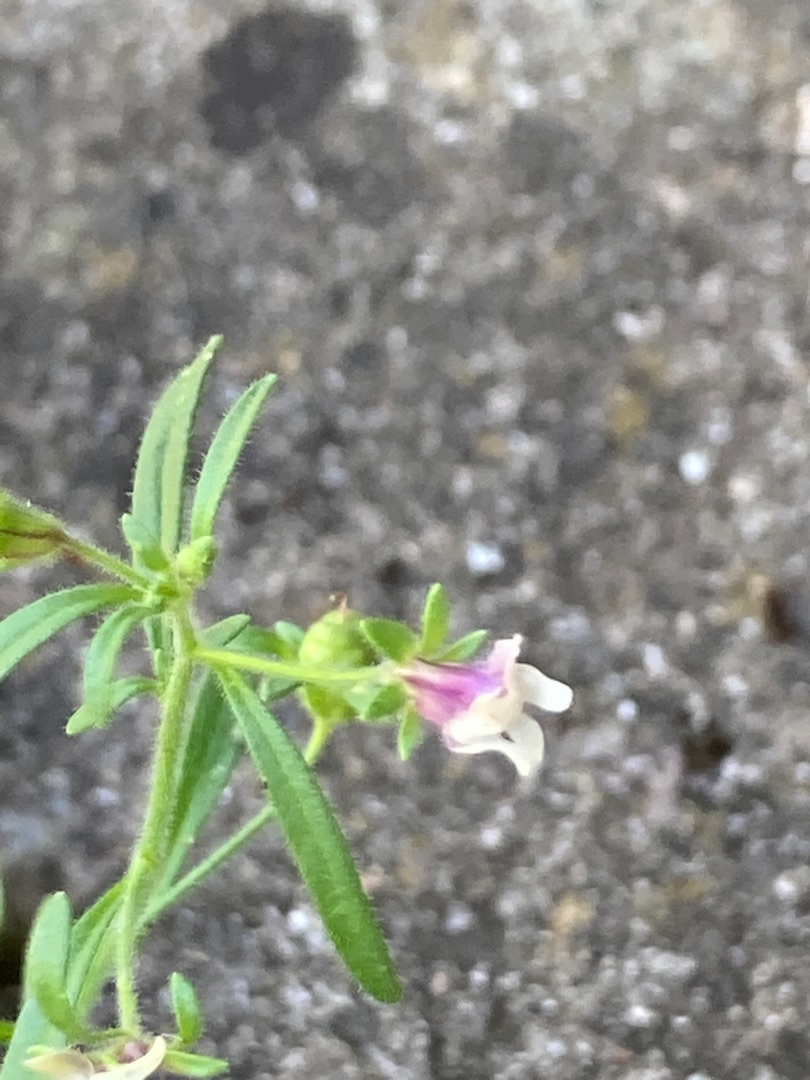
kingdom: Plantae
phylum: Tracheophyta
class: Magnoliopsida
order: Lamiales
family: Plantaginaceae
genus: Chaenorhinum
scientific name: Chaenorhinum minus
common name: Liden torskemund
